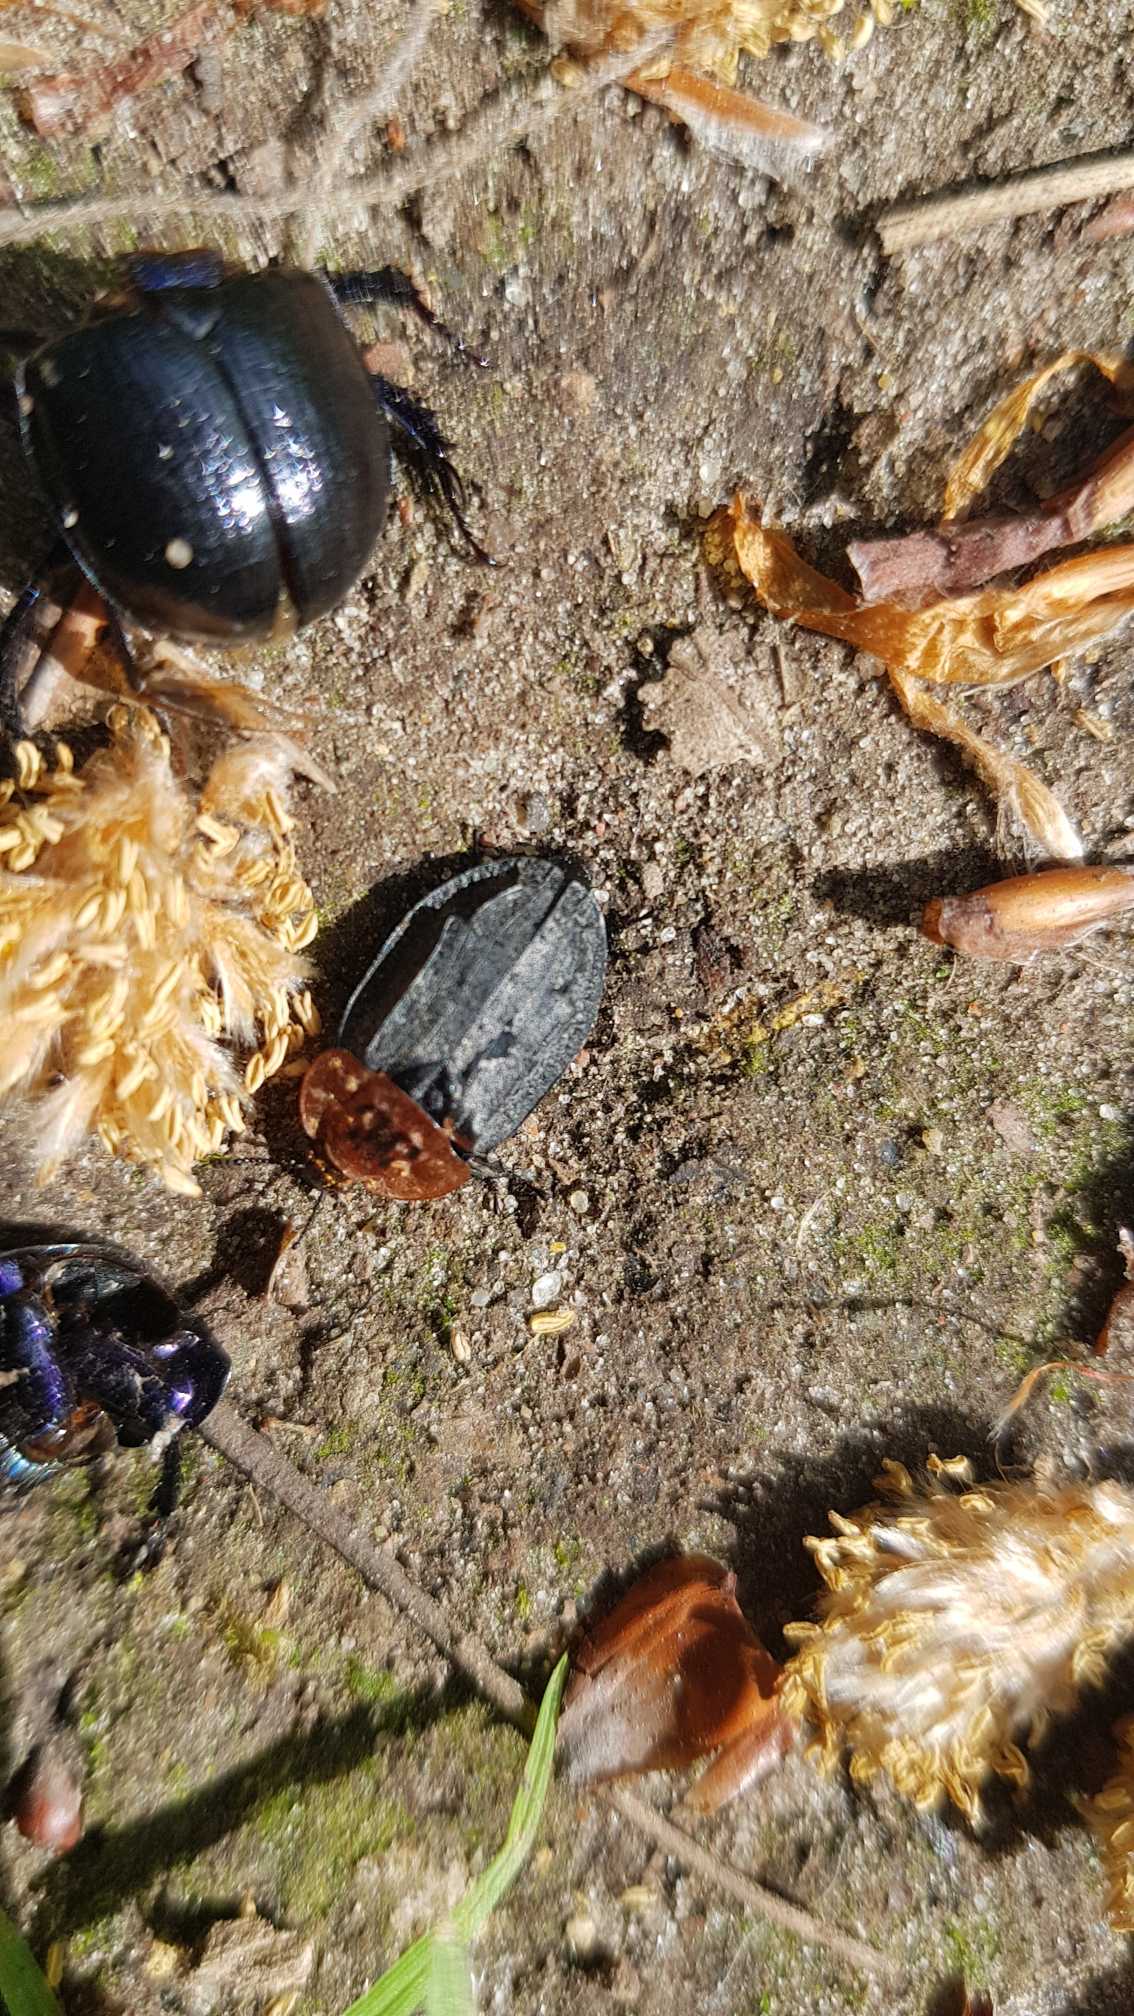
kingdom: Animalia
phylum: Arthropoda
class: Insecta
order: Coleoptera
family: Staphylinidae
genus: Oiceoptoma
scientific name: Oiceoptoma thoracicum
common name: Rødbrystet ådselbille
